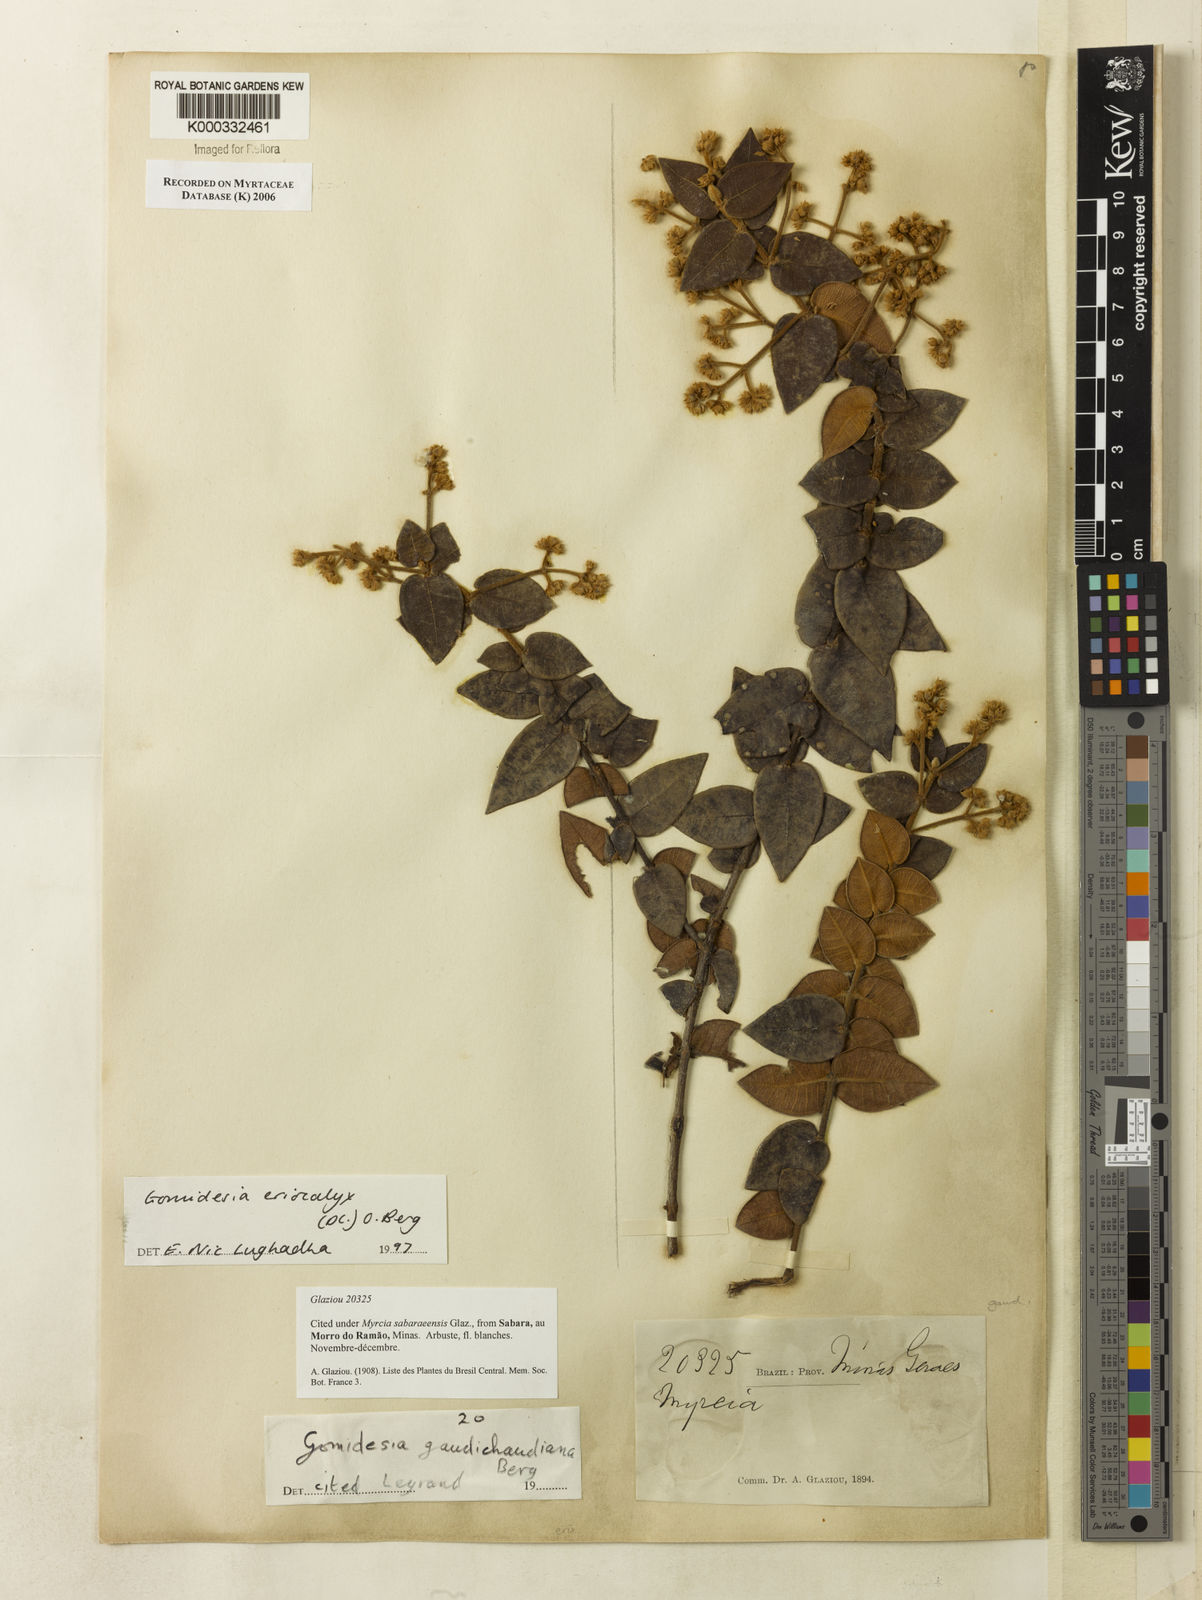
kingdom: Plantae
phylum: Tracheophyta
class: Magnoliopsida
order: Myrtales
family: Myrtaceae
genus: Myrcia
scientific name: Myrcia eriocalyx
